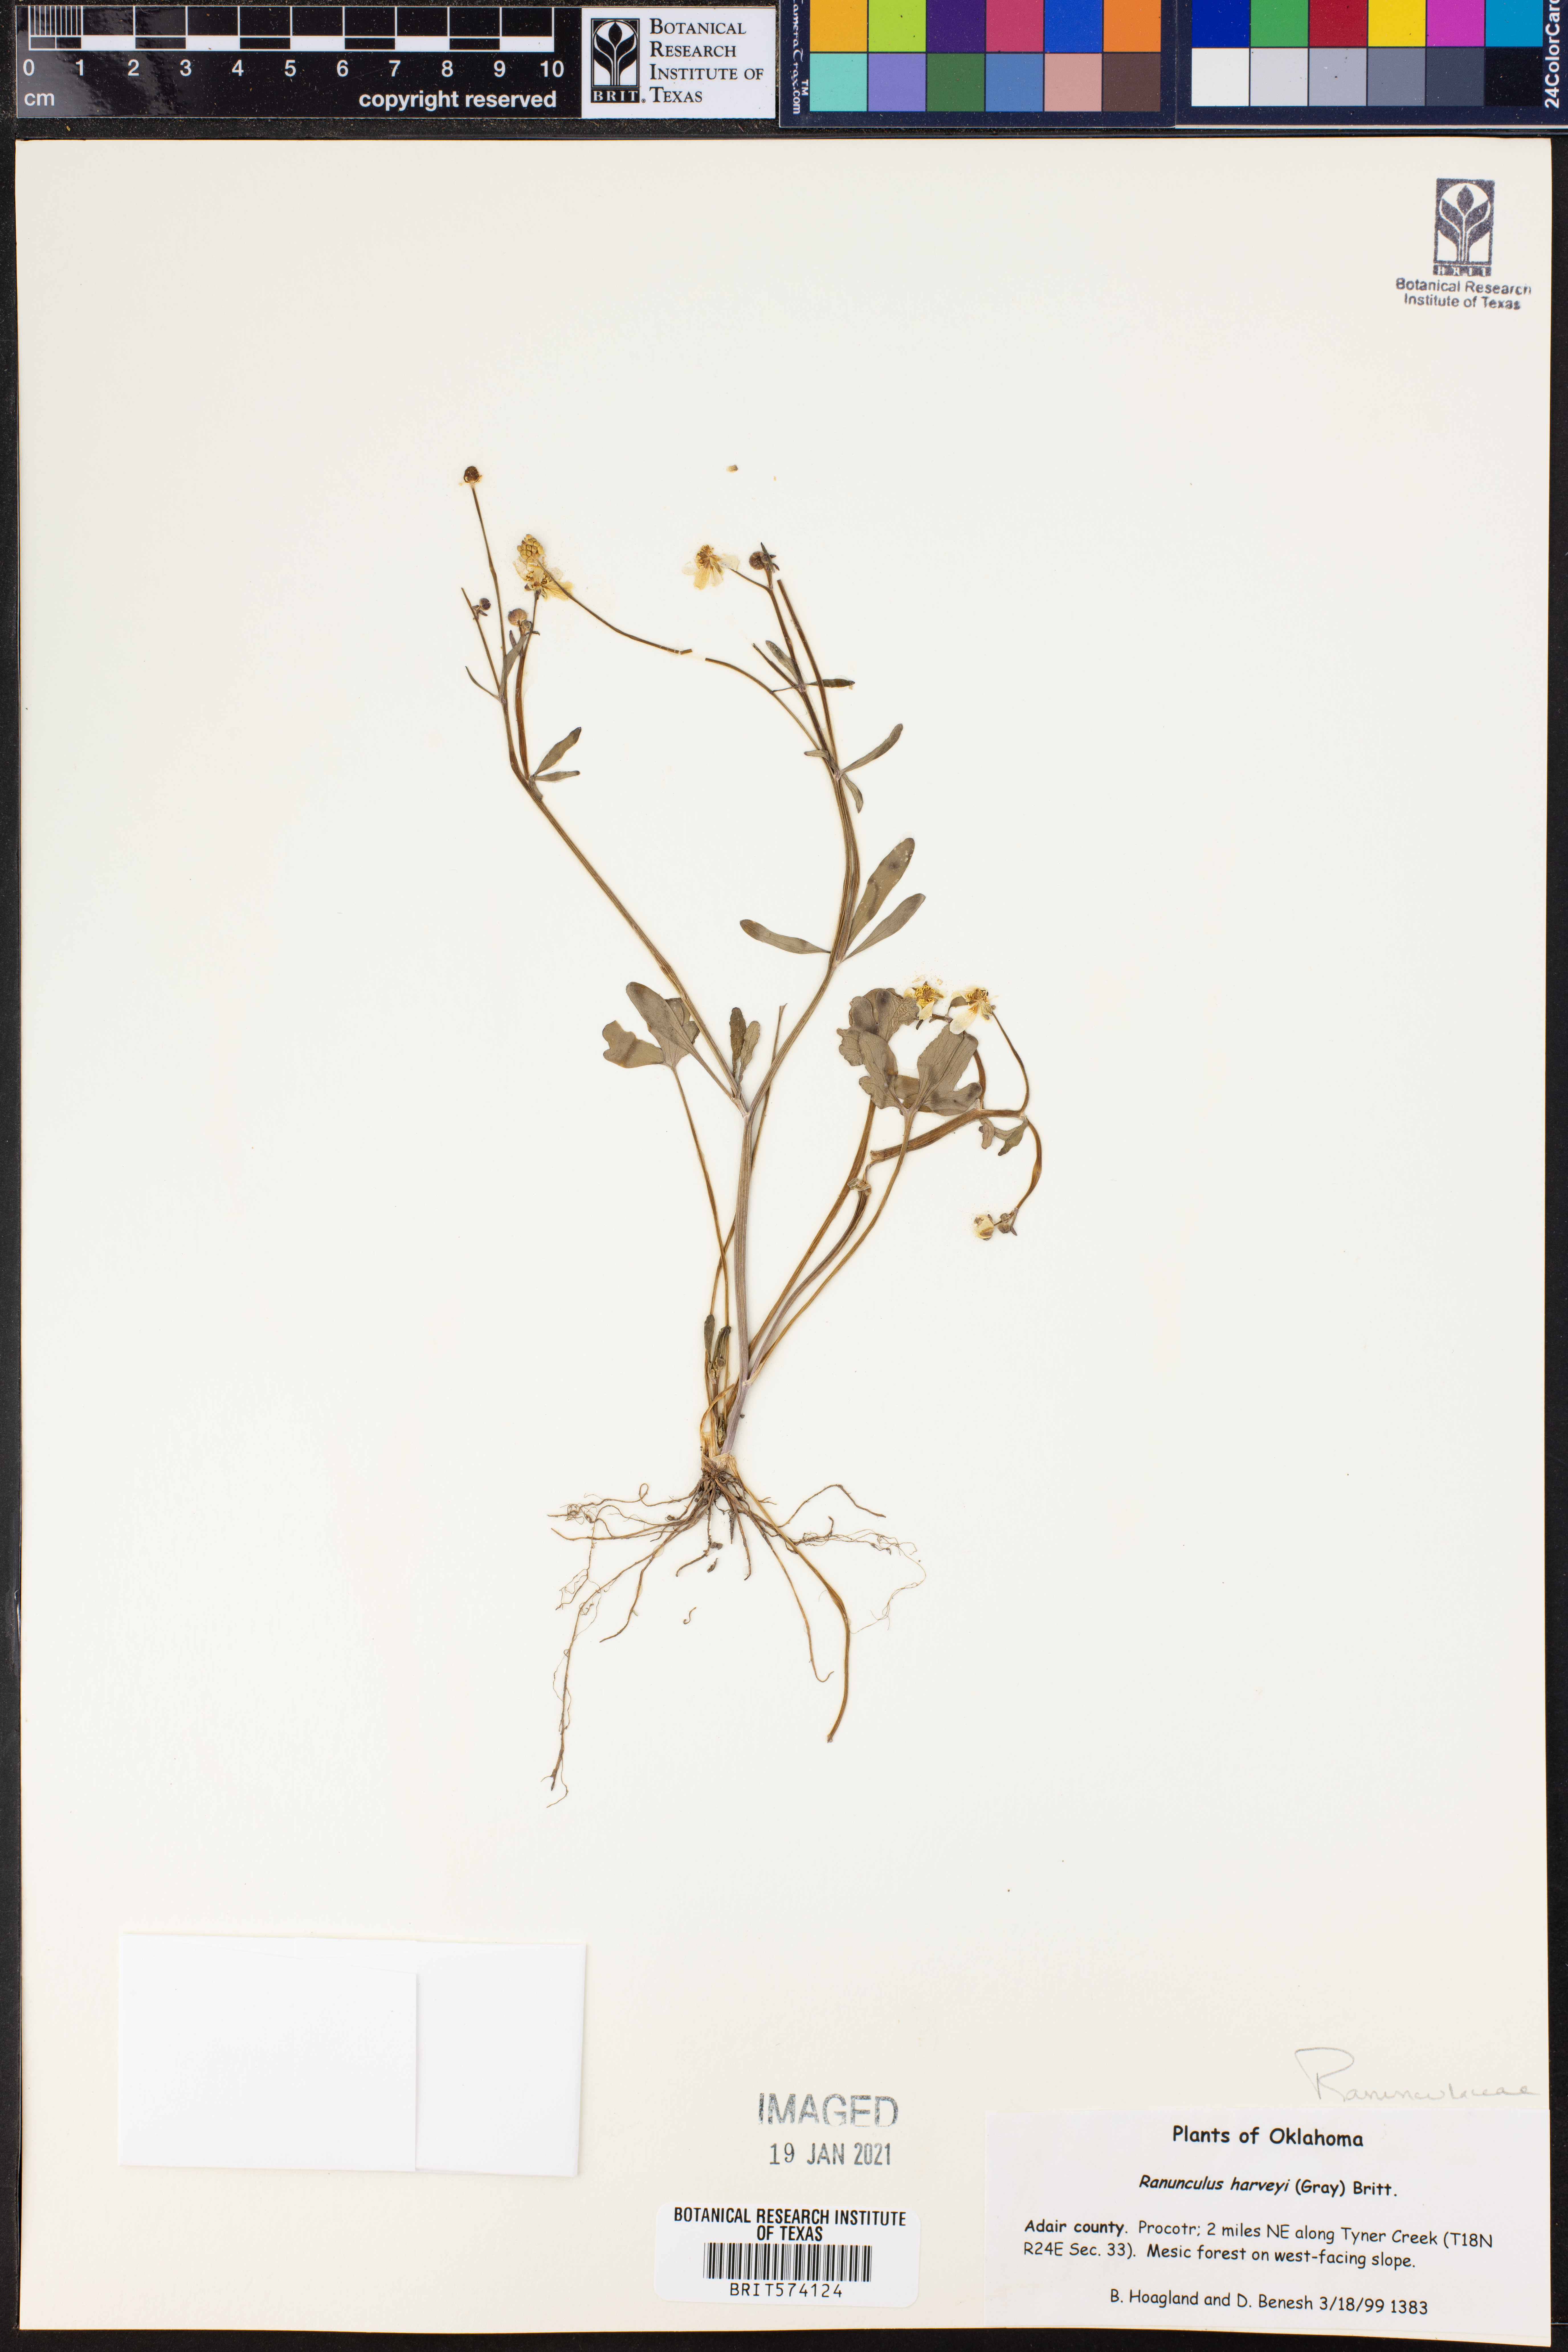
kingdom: Plantae
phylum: Tracheophyta
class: Magnoliopsida
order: Ranunculales
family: Ranunculaceae
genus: Ranunculus
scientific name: Ranunculus harveyi
